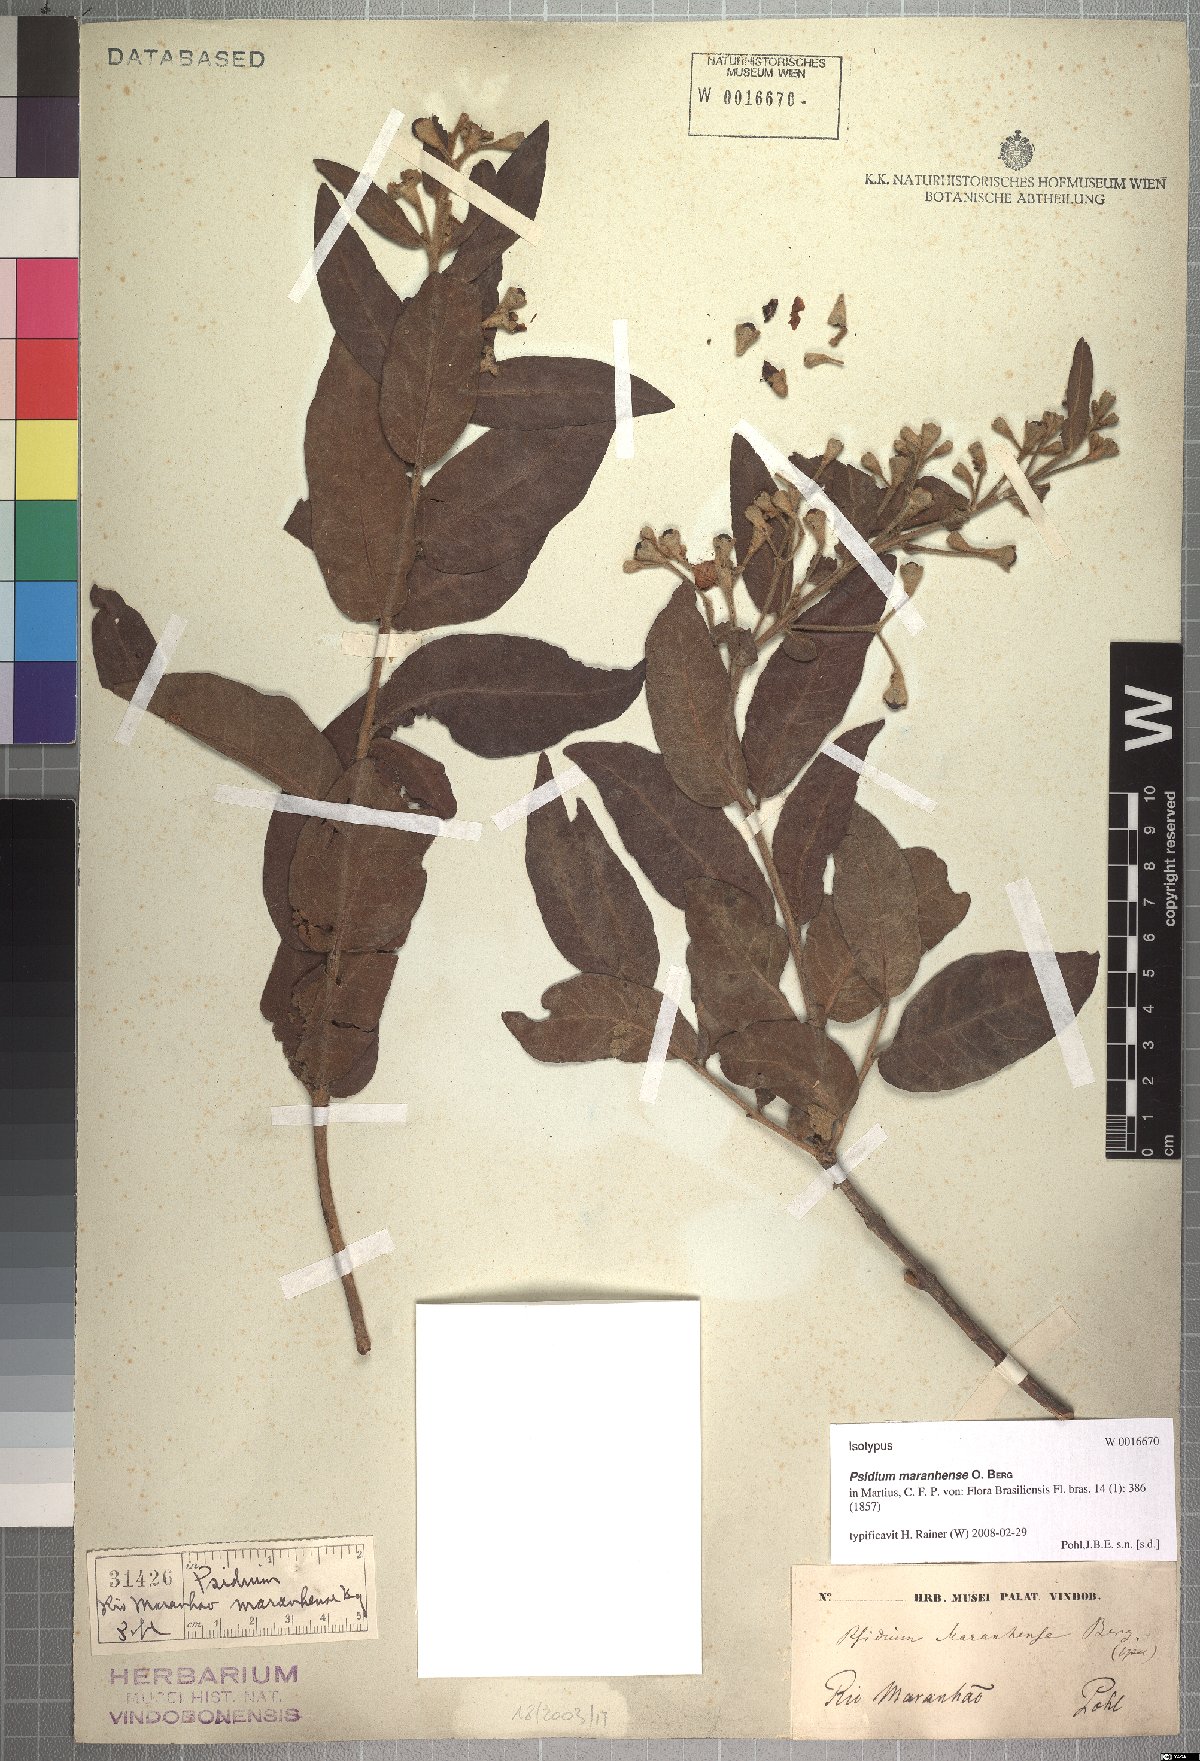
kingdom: Plantae
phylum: Tracheophyta
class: Magnoliopsida
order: Myrtales
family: Myrtaceae
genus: Psidium
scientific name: Psidium riparium
